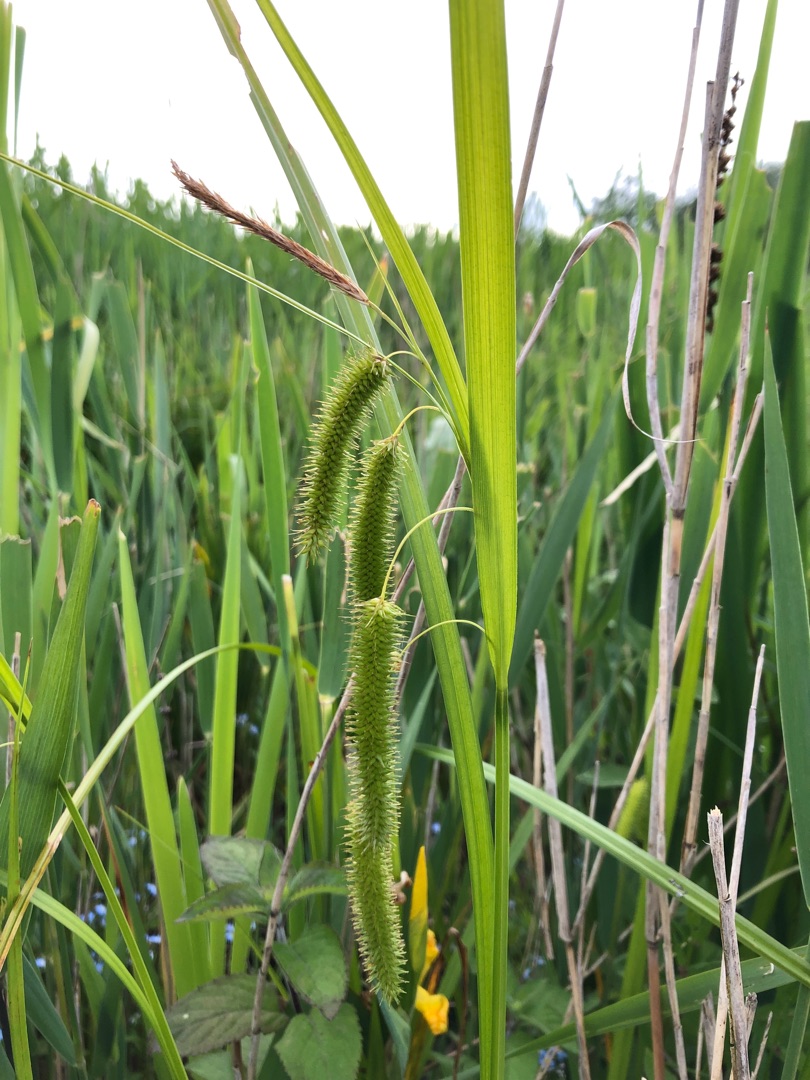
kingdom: Plantae
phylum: Tracheophyta
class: Liliopsida
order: Poales
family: Cyperaceae
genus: Carex
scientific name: Carex pseudocyperus
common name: Knippe-star
